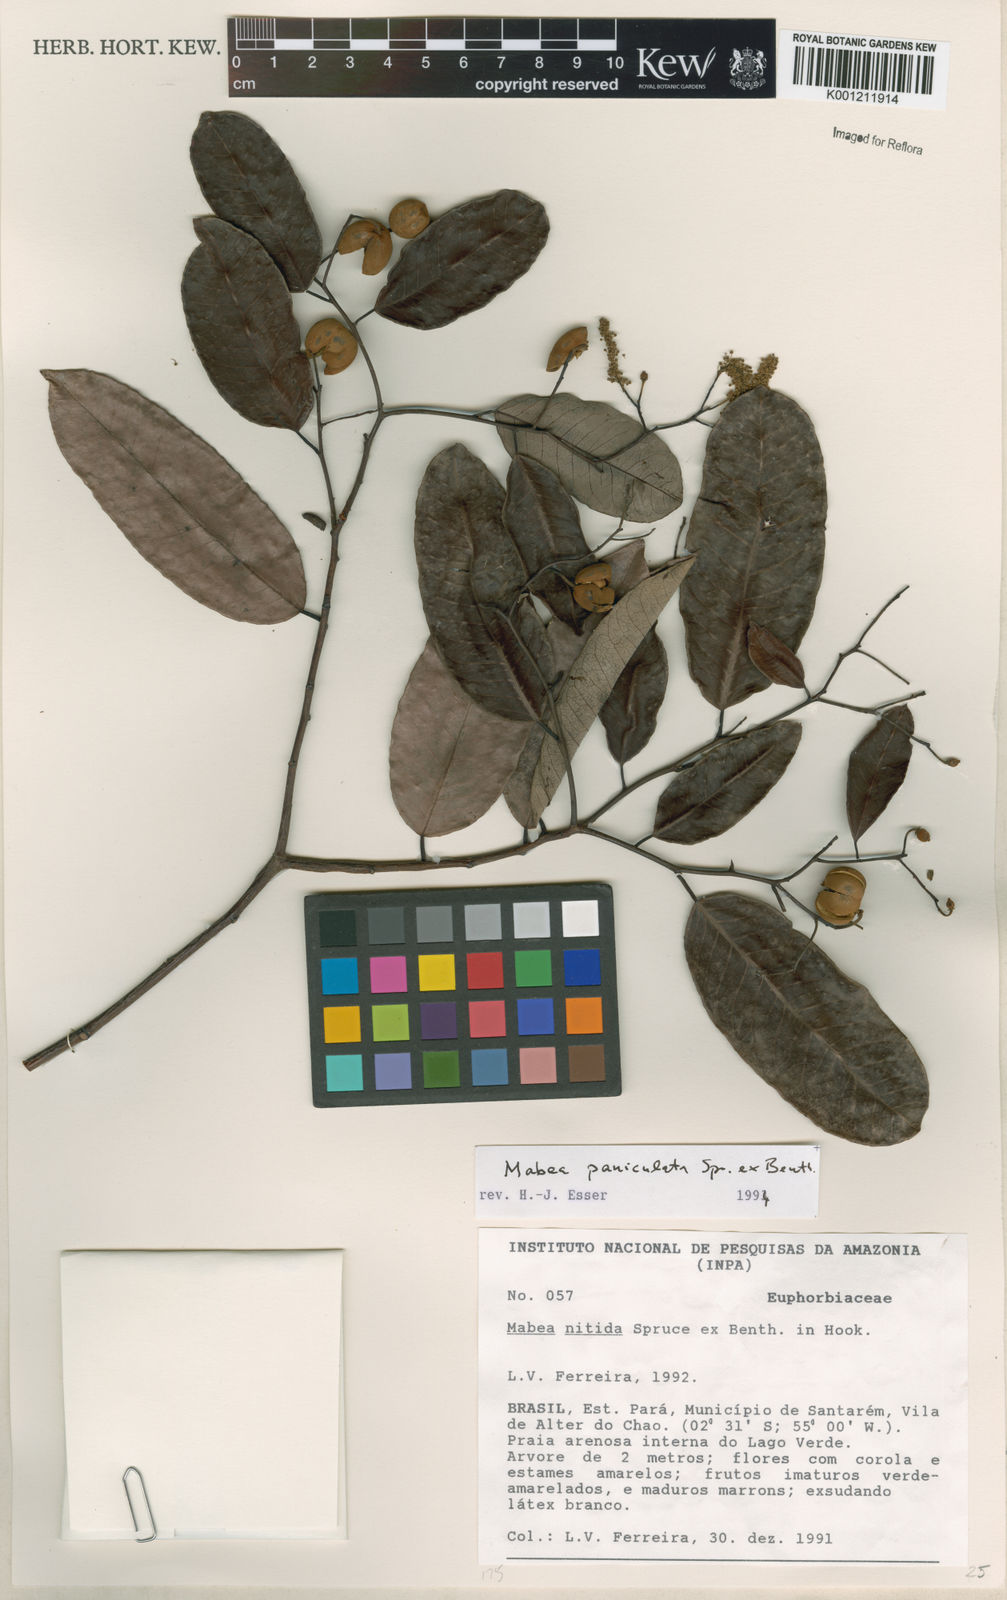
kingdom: Plantae
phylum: Tracheophyta
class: Magnoliopsida
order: Malpighiales
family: Euphorbiaceae
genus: Mabea
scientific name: Mabea paniculata
